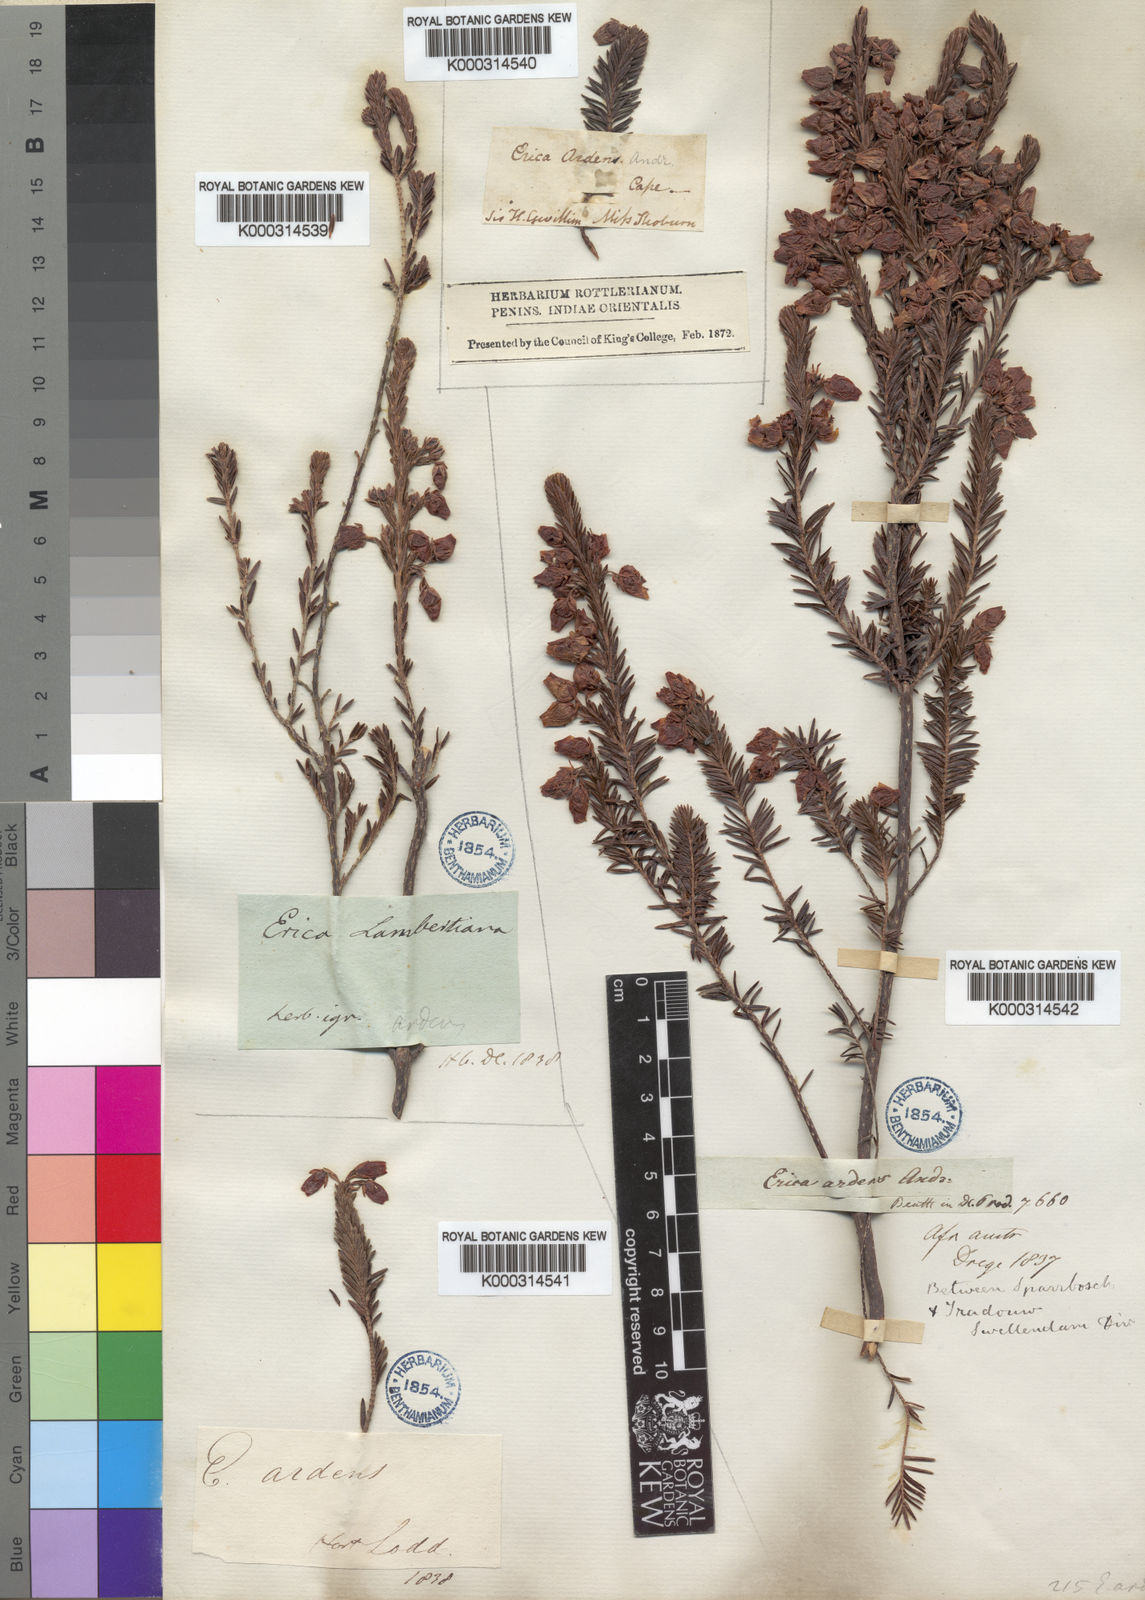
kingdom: Plantae
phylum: Tracheophyta
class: Magnoliopsida
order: Ericales
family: Ericaceae
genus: Erica
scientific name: Erica ardens
